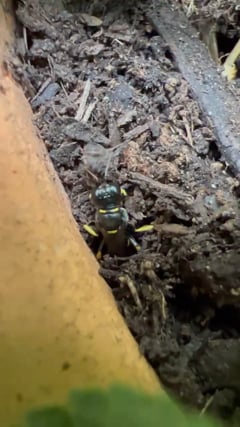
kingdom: Animalia
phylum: Arthropoda
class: Insecta
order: Hymenoptera
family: Crabronidae
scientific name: Crabronidae
